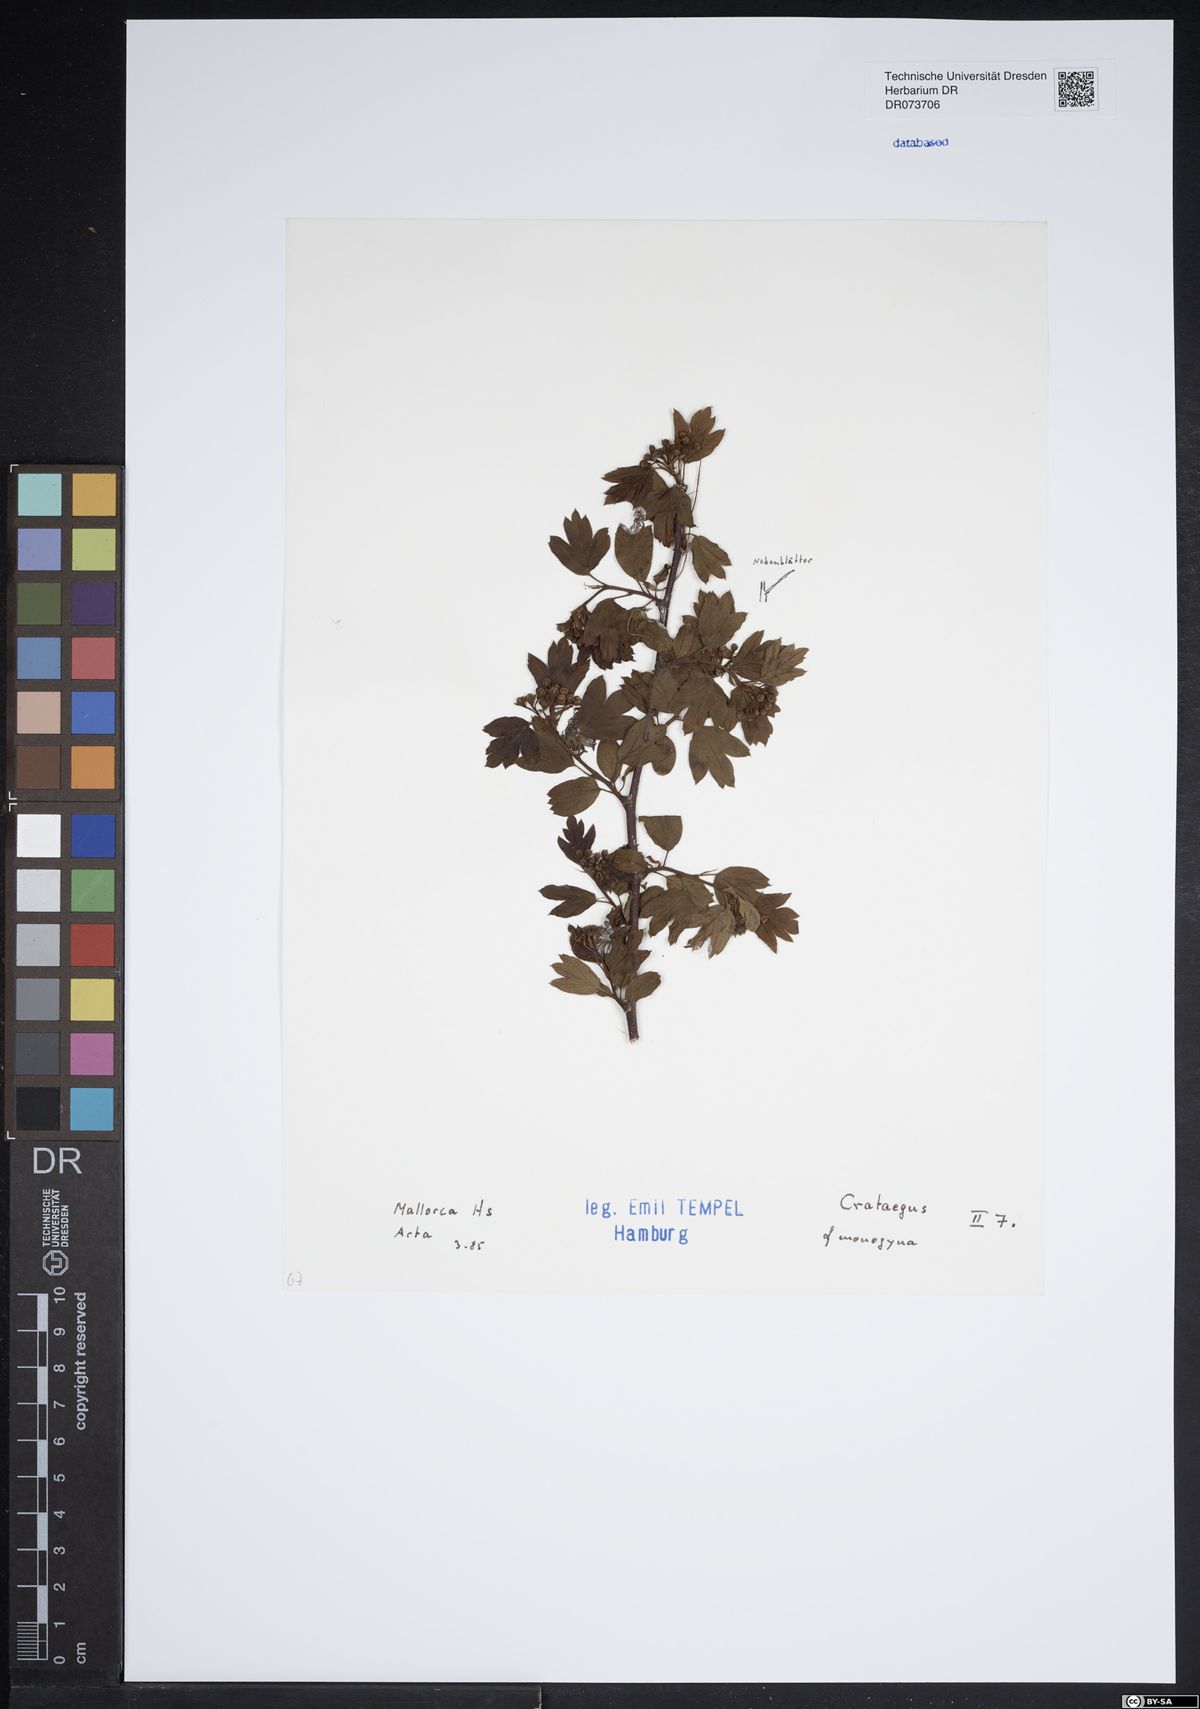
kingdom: Plantae
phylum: Tracheophyta
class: Magnoliopsida
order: Rosales
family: Rosaceae
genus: Crataegus
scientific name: Crataegus monogyna
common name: Hawthorn
